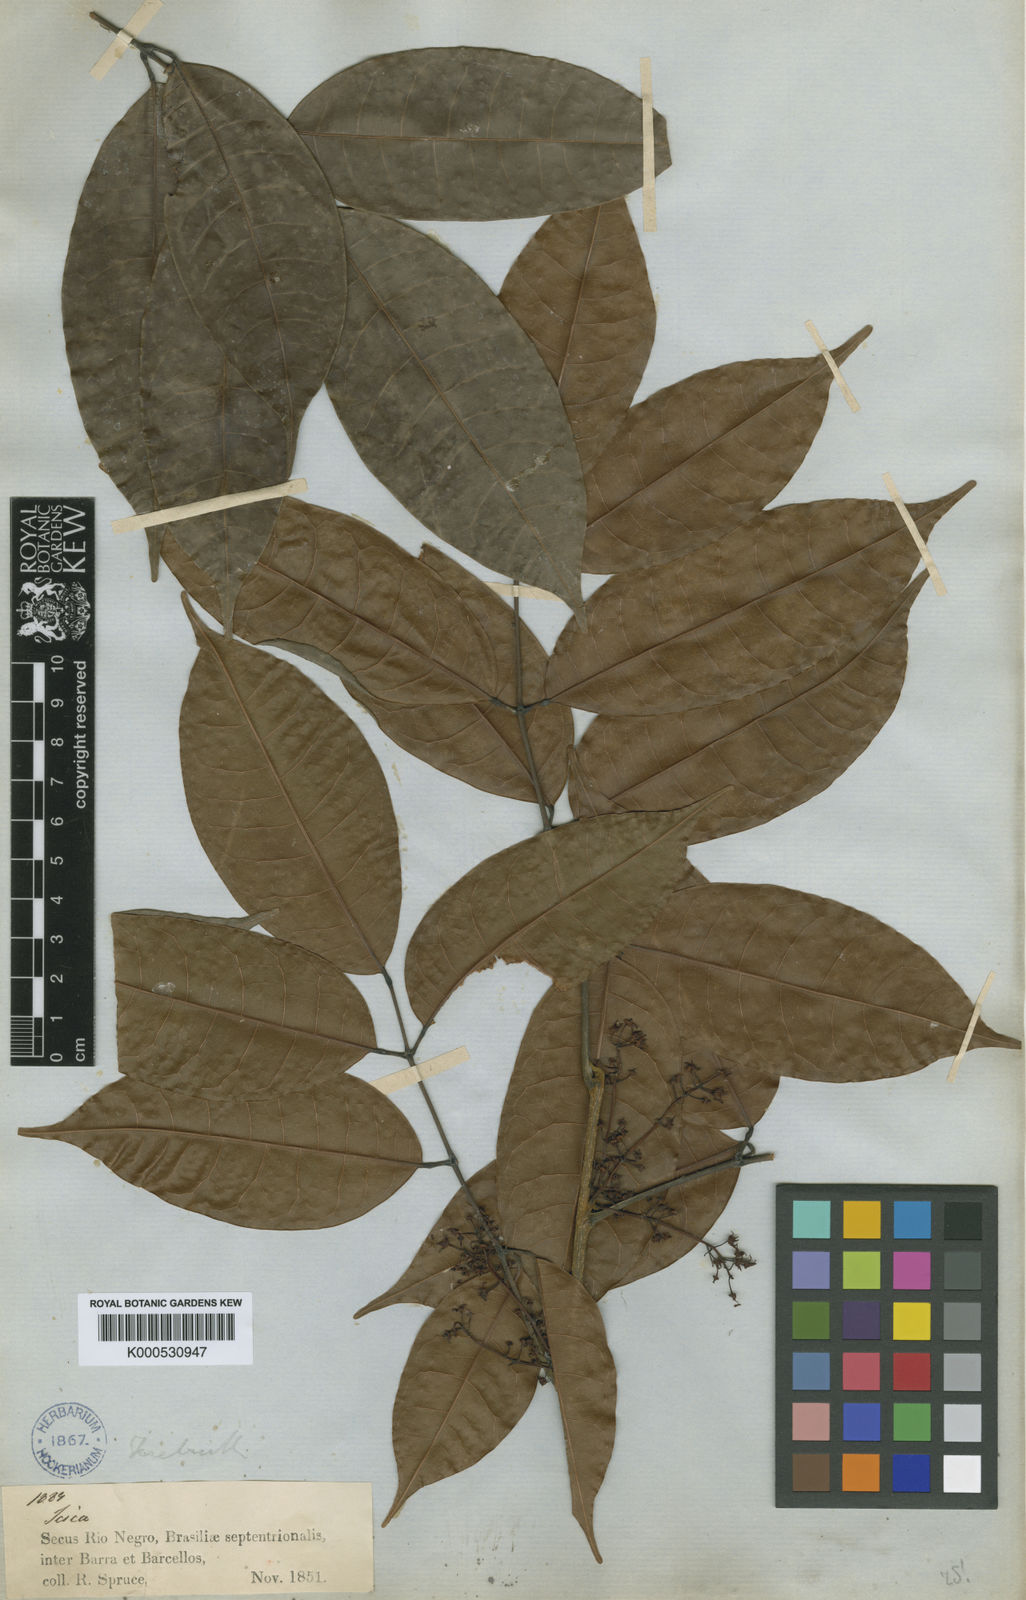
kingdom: Plantae
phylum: Tracheophyta
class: Magnoliopsida
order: Sapindales
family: Burseraceae
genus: Protium
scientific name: Protium laxiflorum
